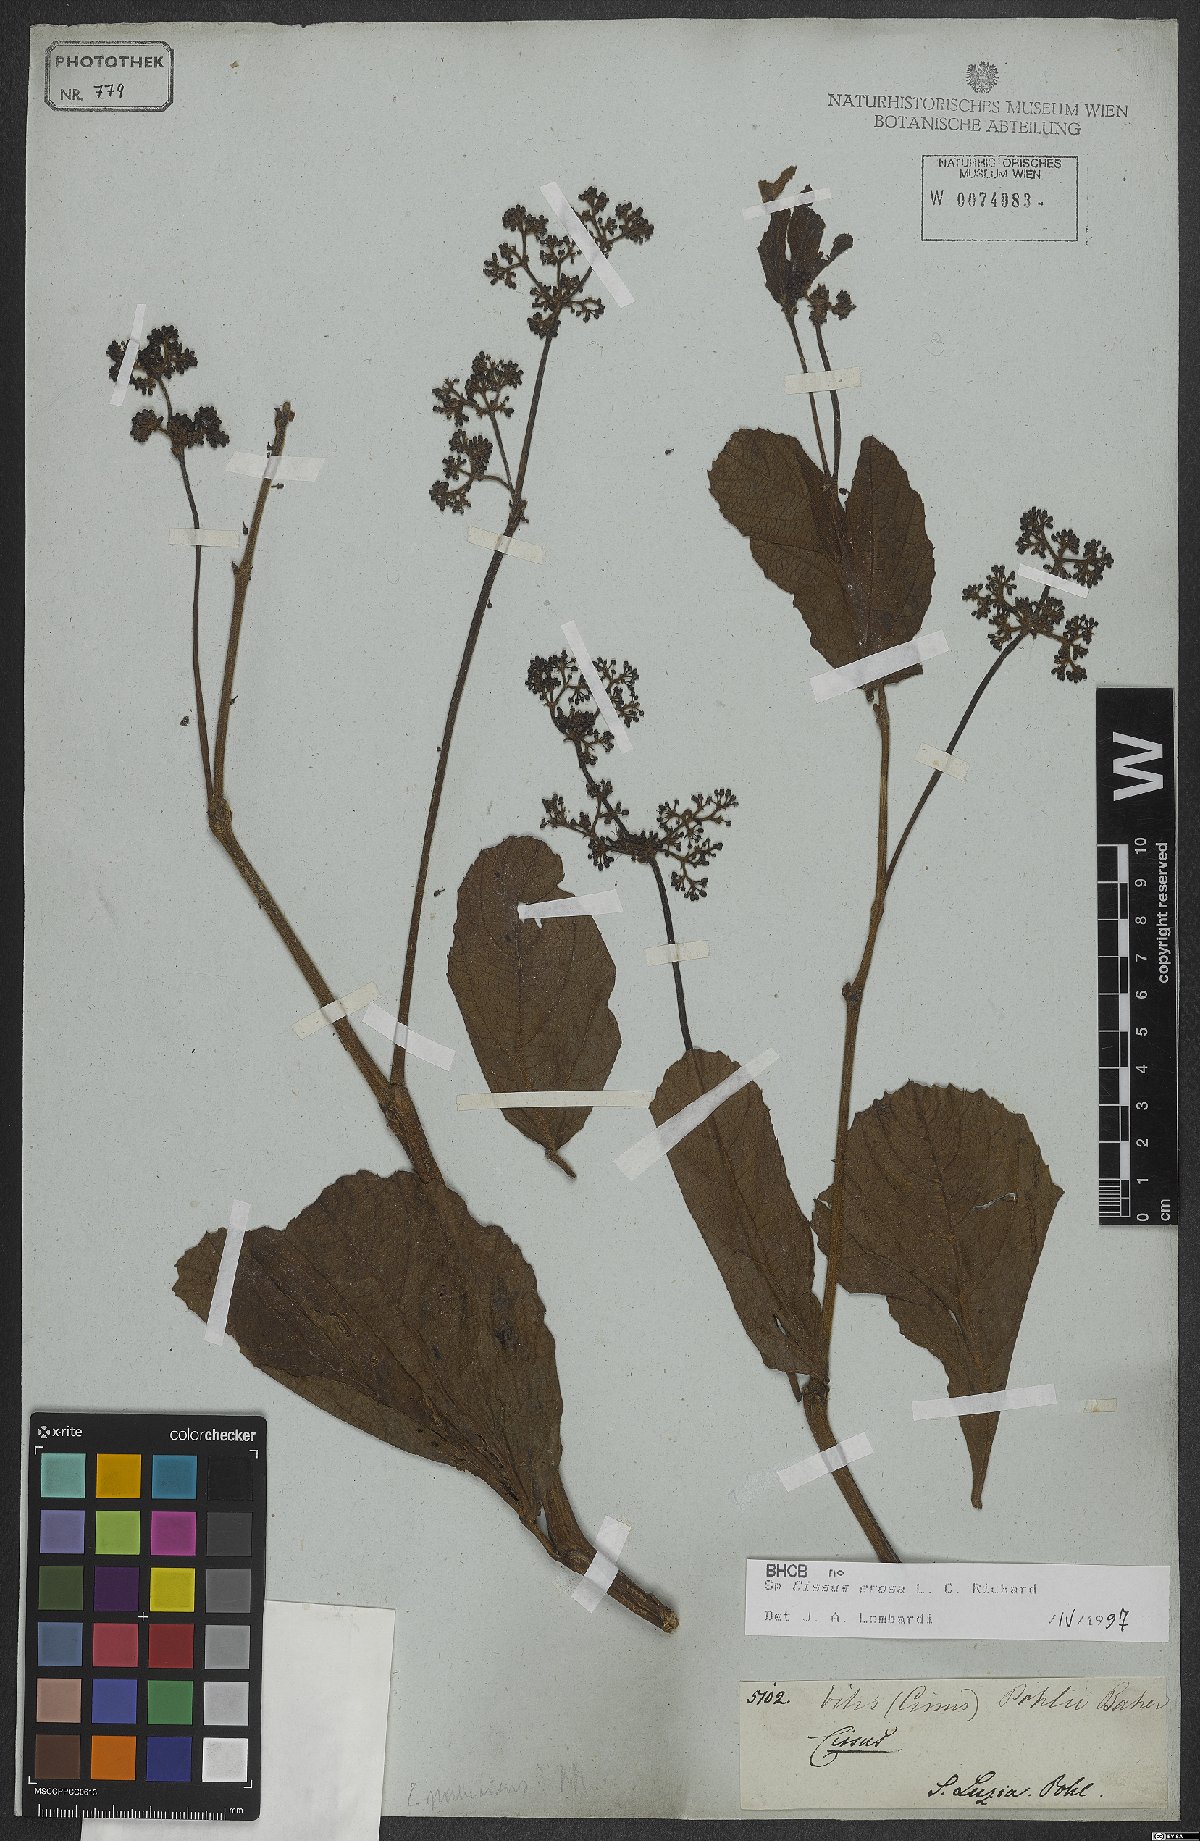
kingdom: Plantae
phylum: Tracheophyta
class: Magnoliopsida
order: Vitales
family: Vitaceae
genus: Cissus
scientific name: Cissus erosa
